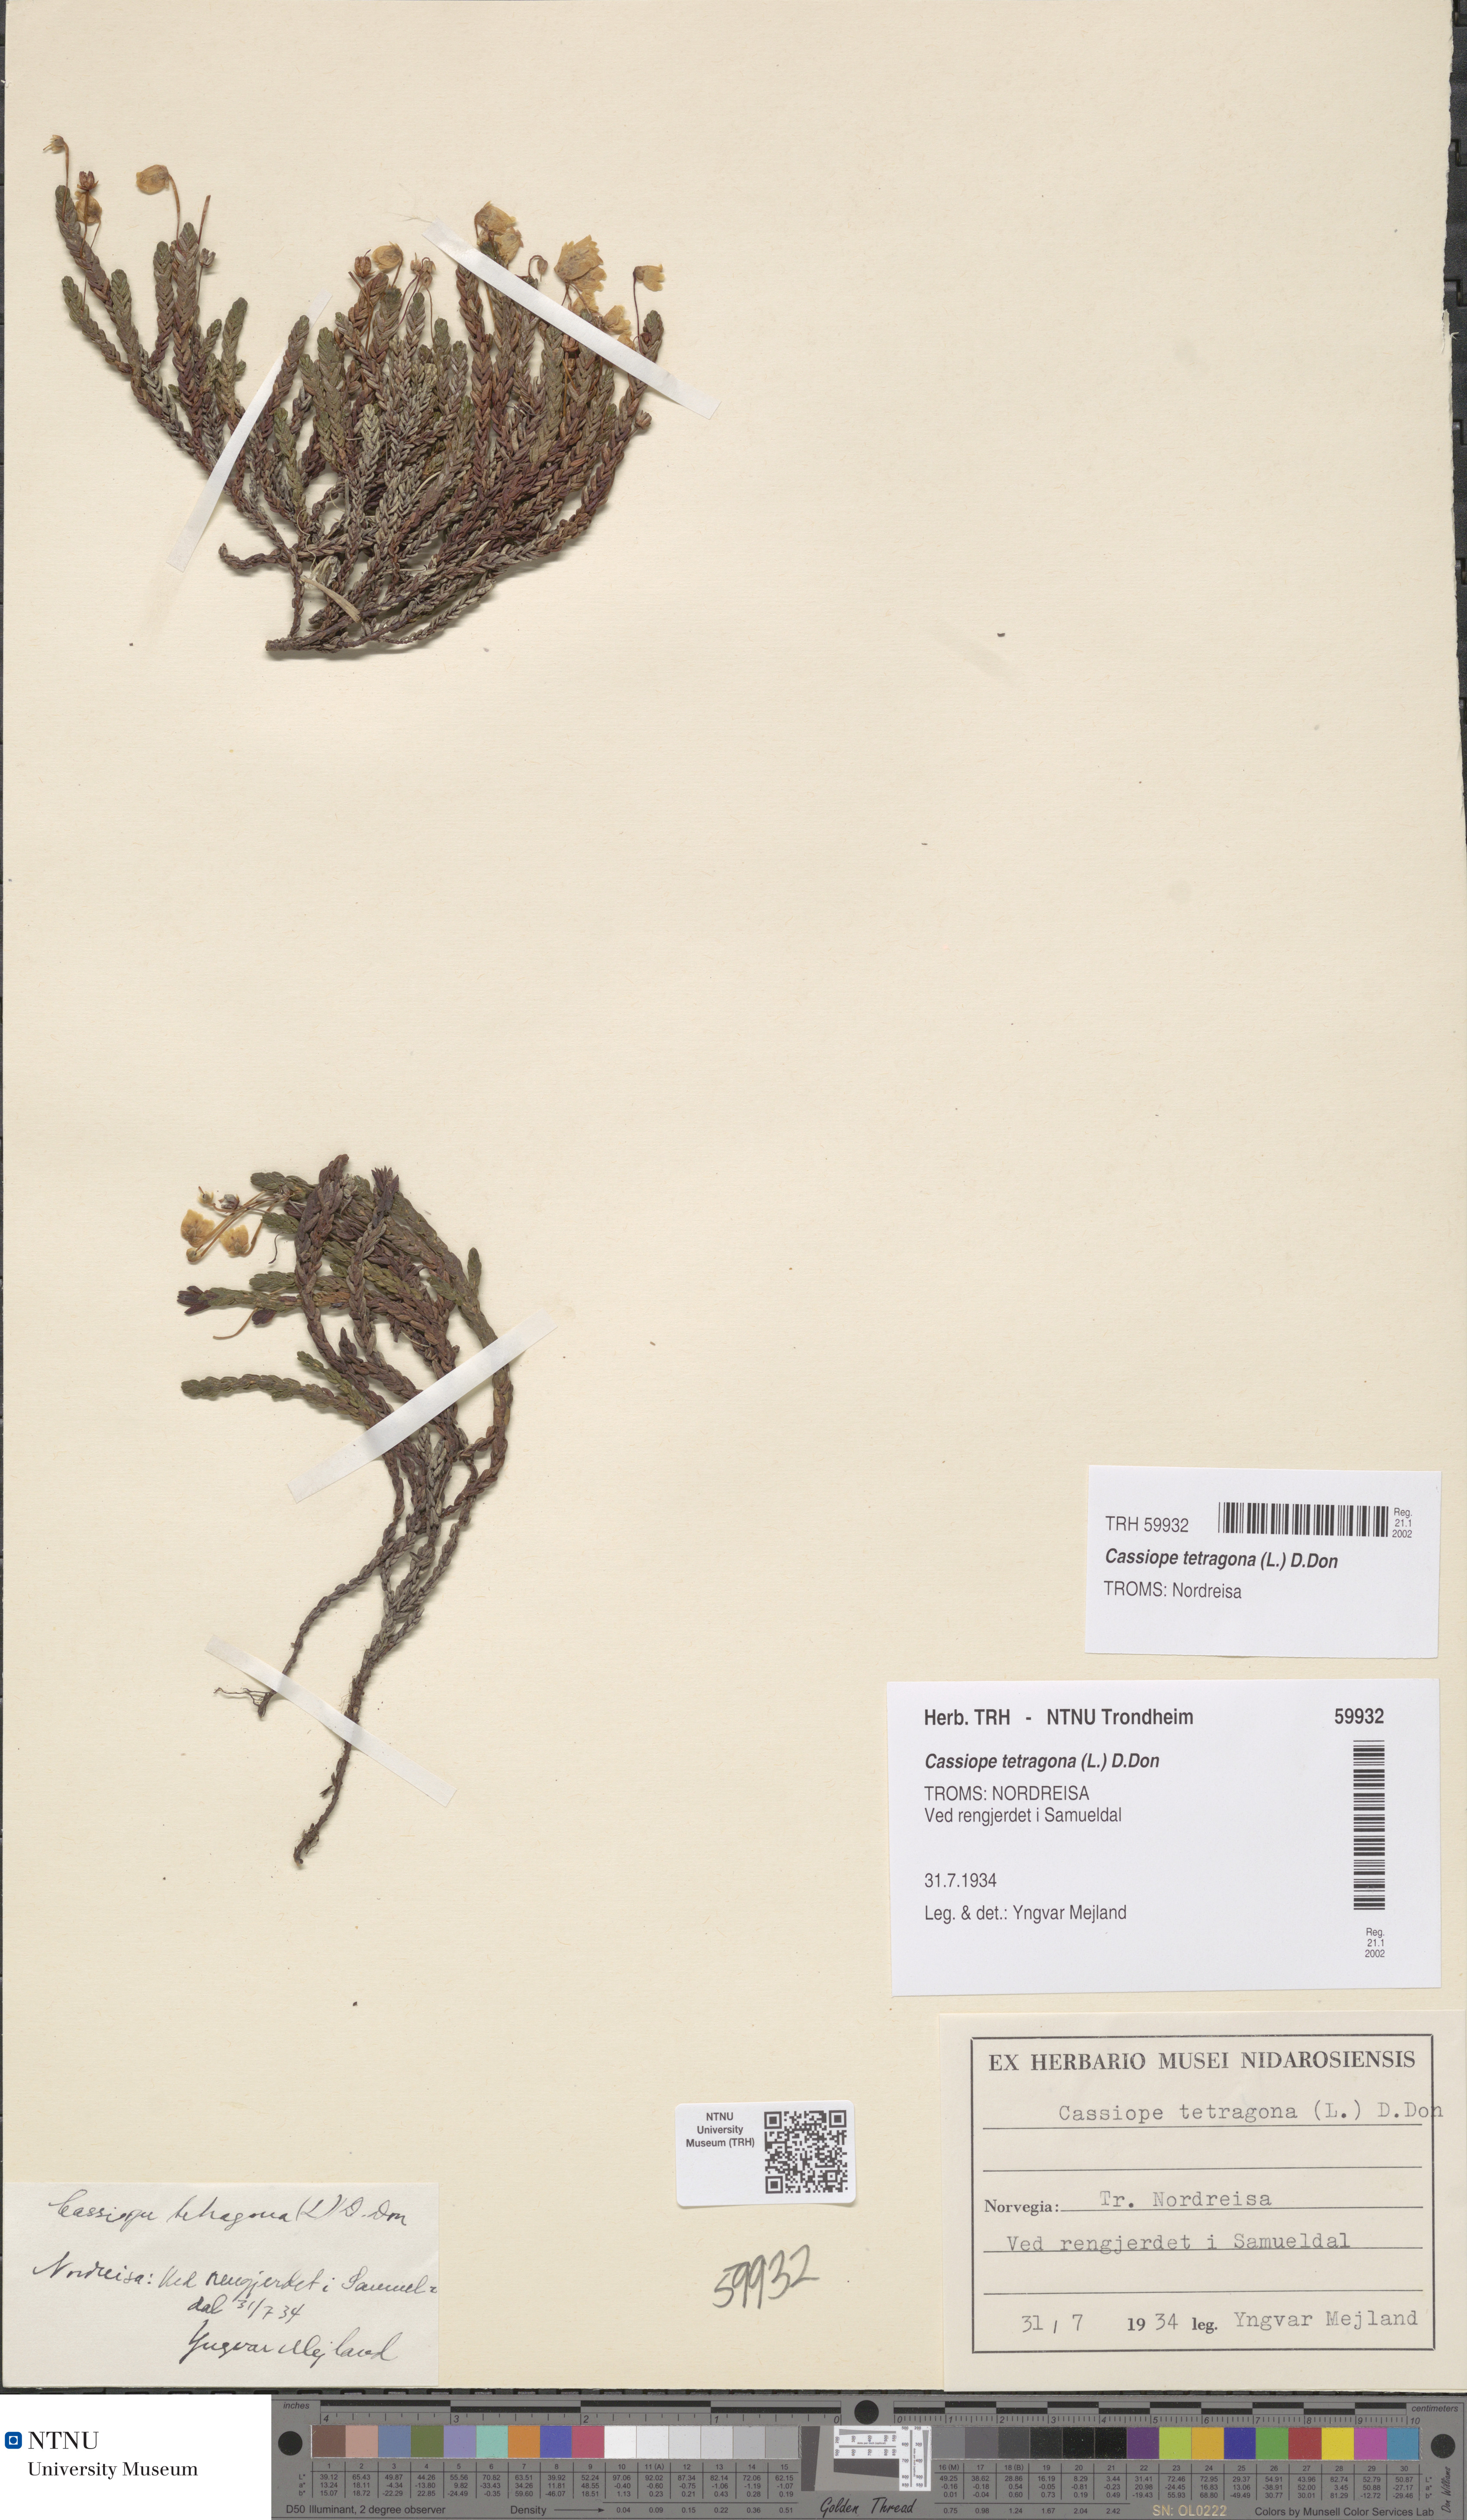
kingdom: Plantae
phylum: Tracheophyta
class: Magnoliopsida
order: Ericales
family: Ericaceae
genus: Cassiope
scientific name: Cassiope tetragona
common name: Arctic bell heather
